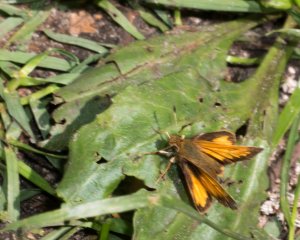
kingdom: Animalia
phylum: Arthropoda
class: Insecta
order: Lepidoptera
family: Hesperiidae
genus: Lon
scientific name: Lon hobomok
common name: Hobomok Skipper
